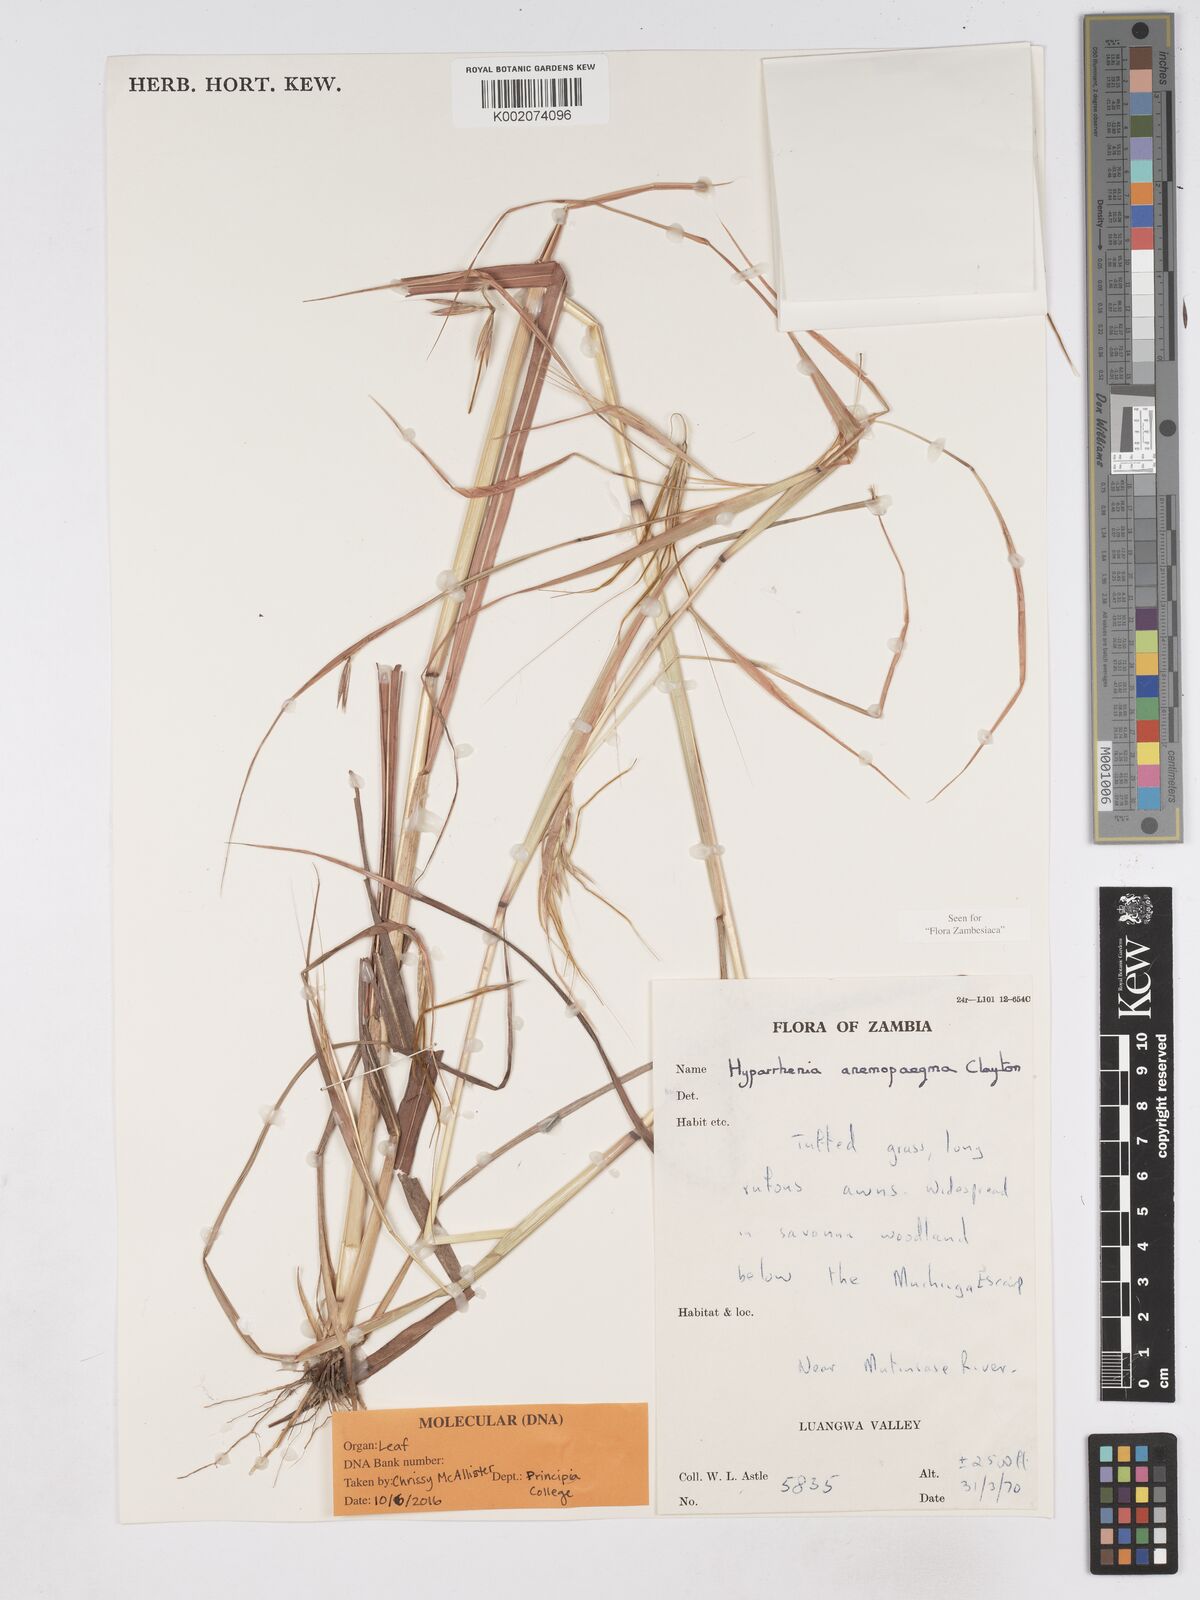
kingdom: Plantae
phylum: Tracheophyta
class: Liliopsida
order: Poales
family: Poaceae
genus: Hyparrhenia
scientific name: Hyparrhenia anemopaegma
